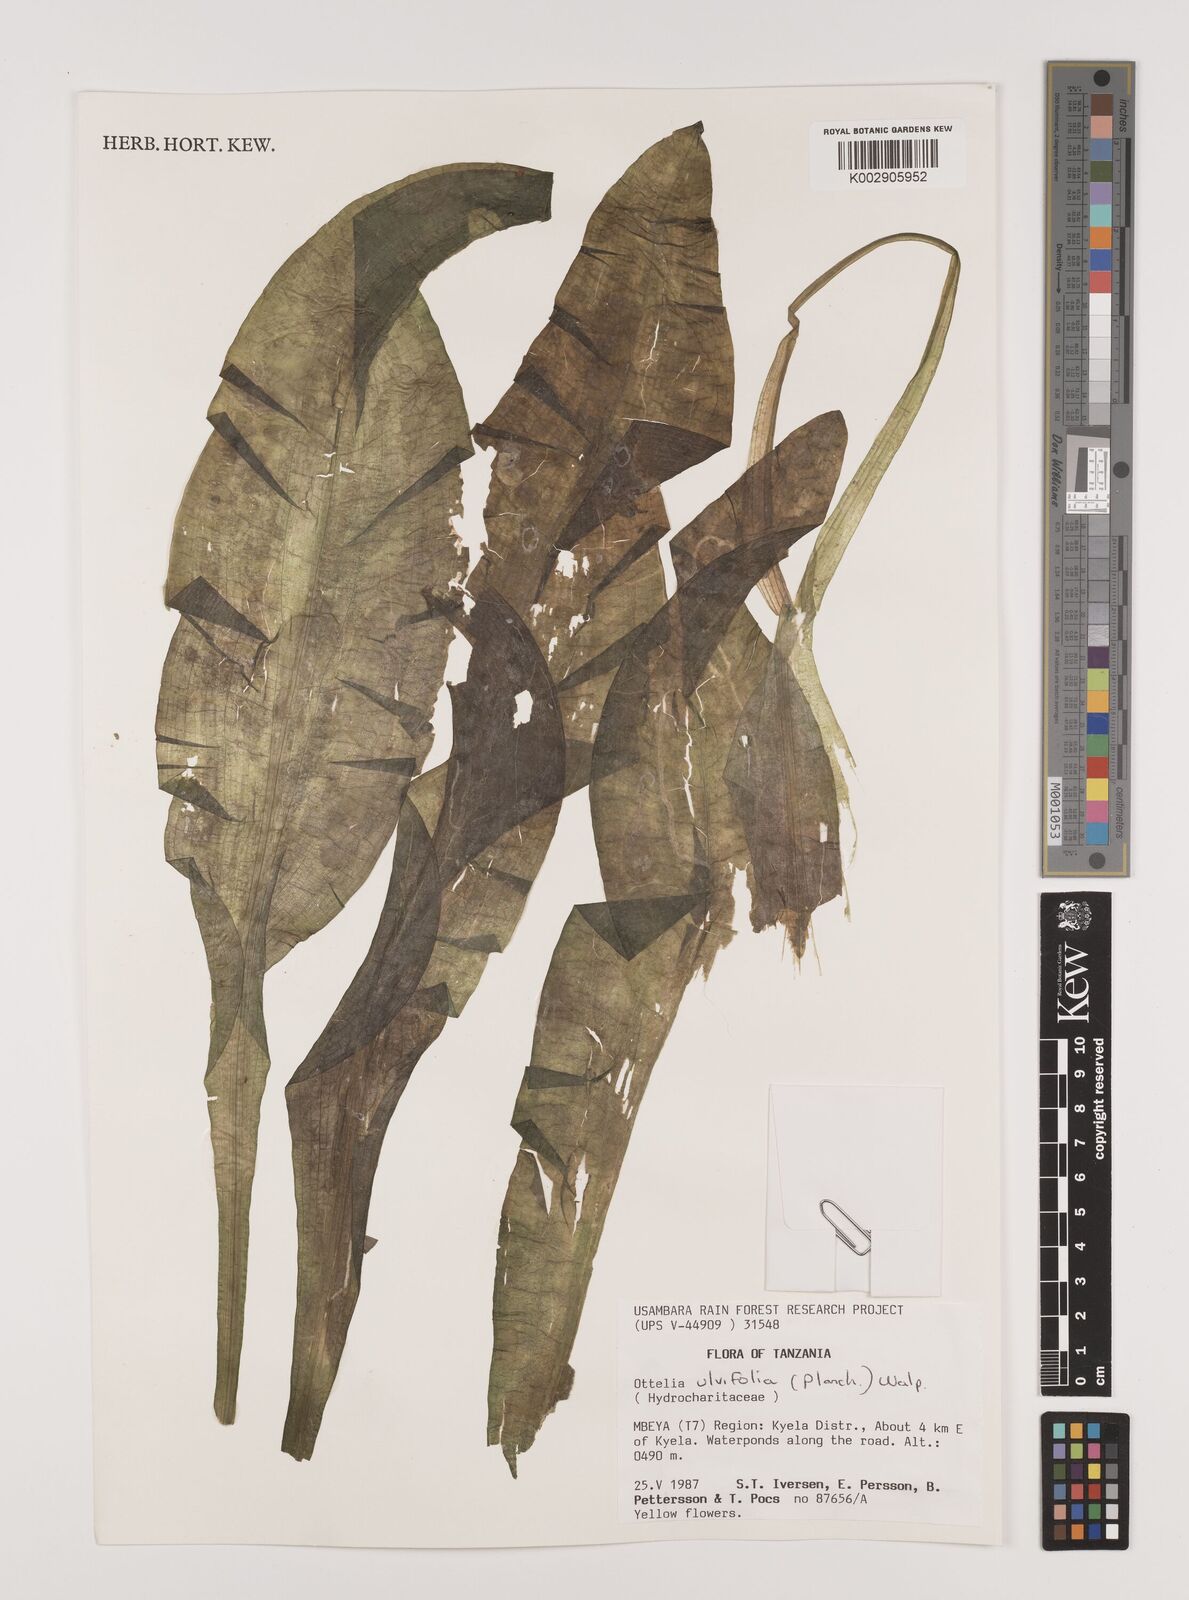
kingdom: Plantae
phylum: Tracheophyta
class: Liliopsida
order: Alismatales
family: Hydrocharitaceae
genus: Ottelia
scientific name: Ottelia ulvifolia
